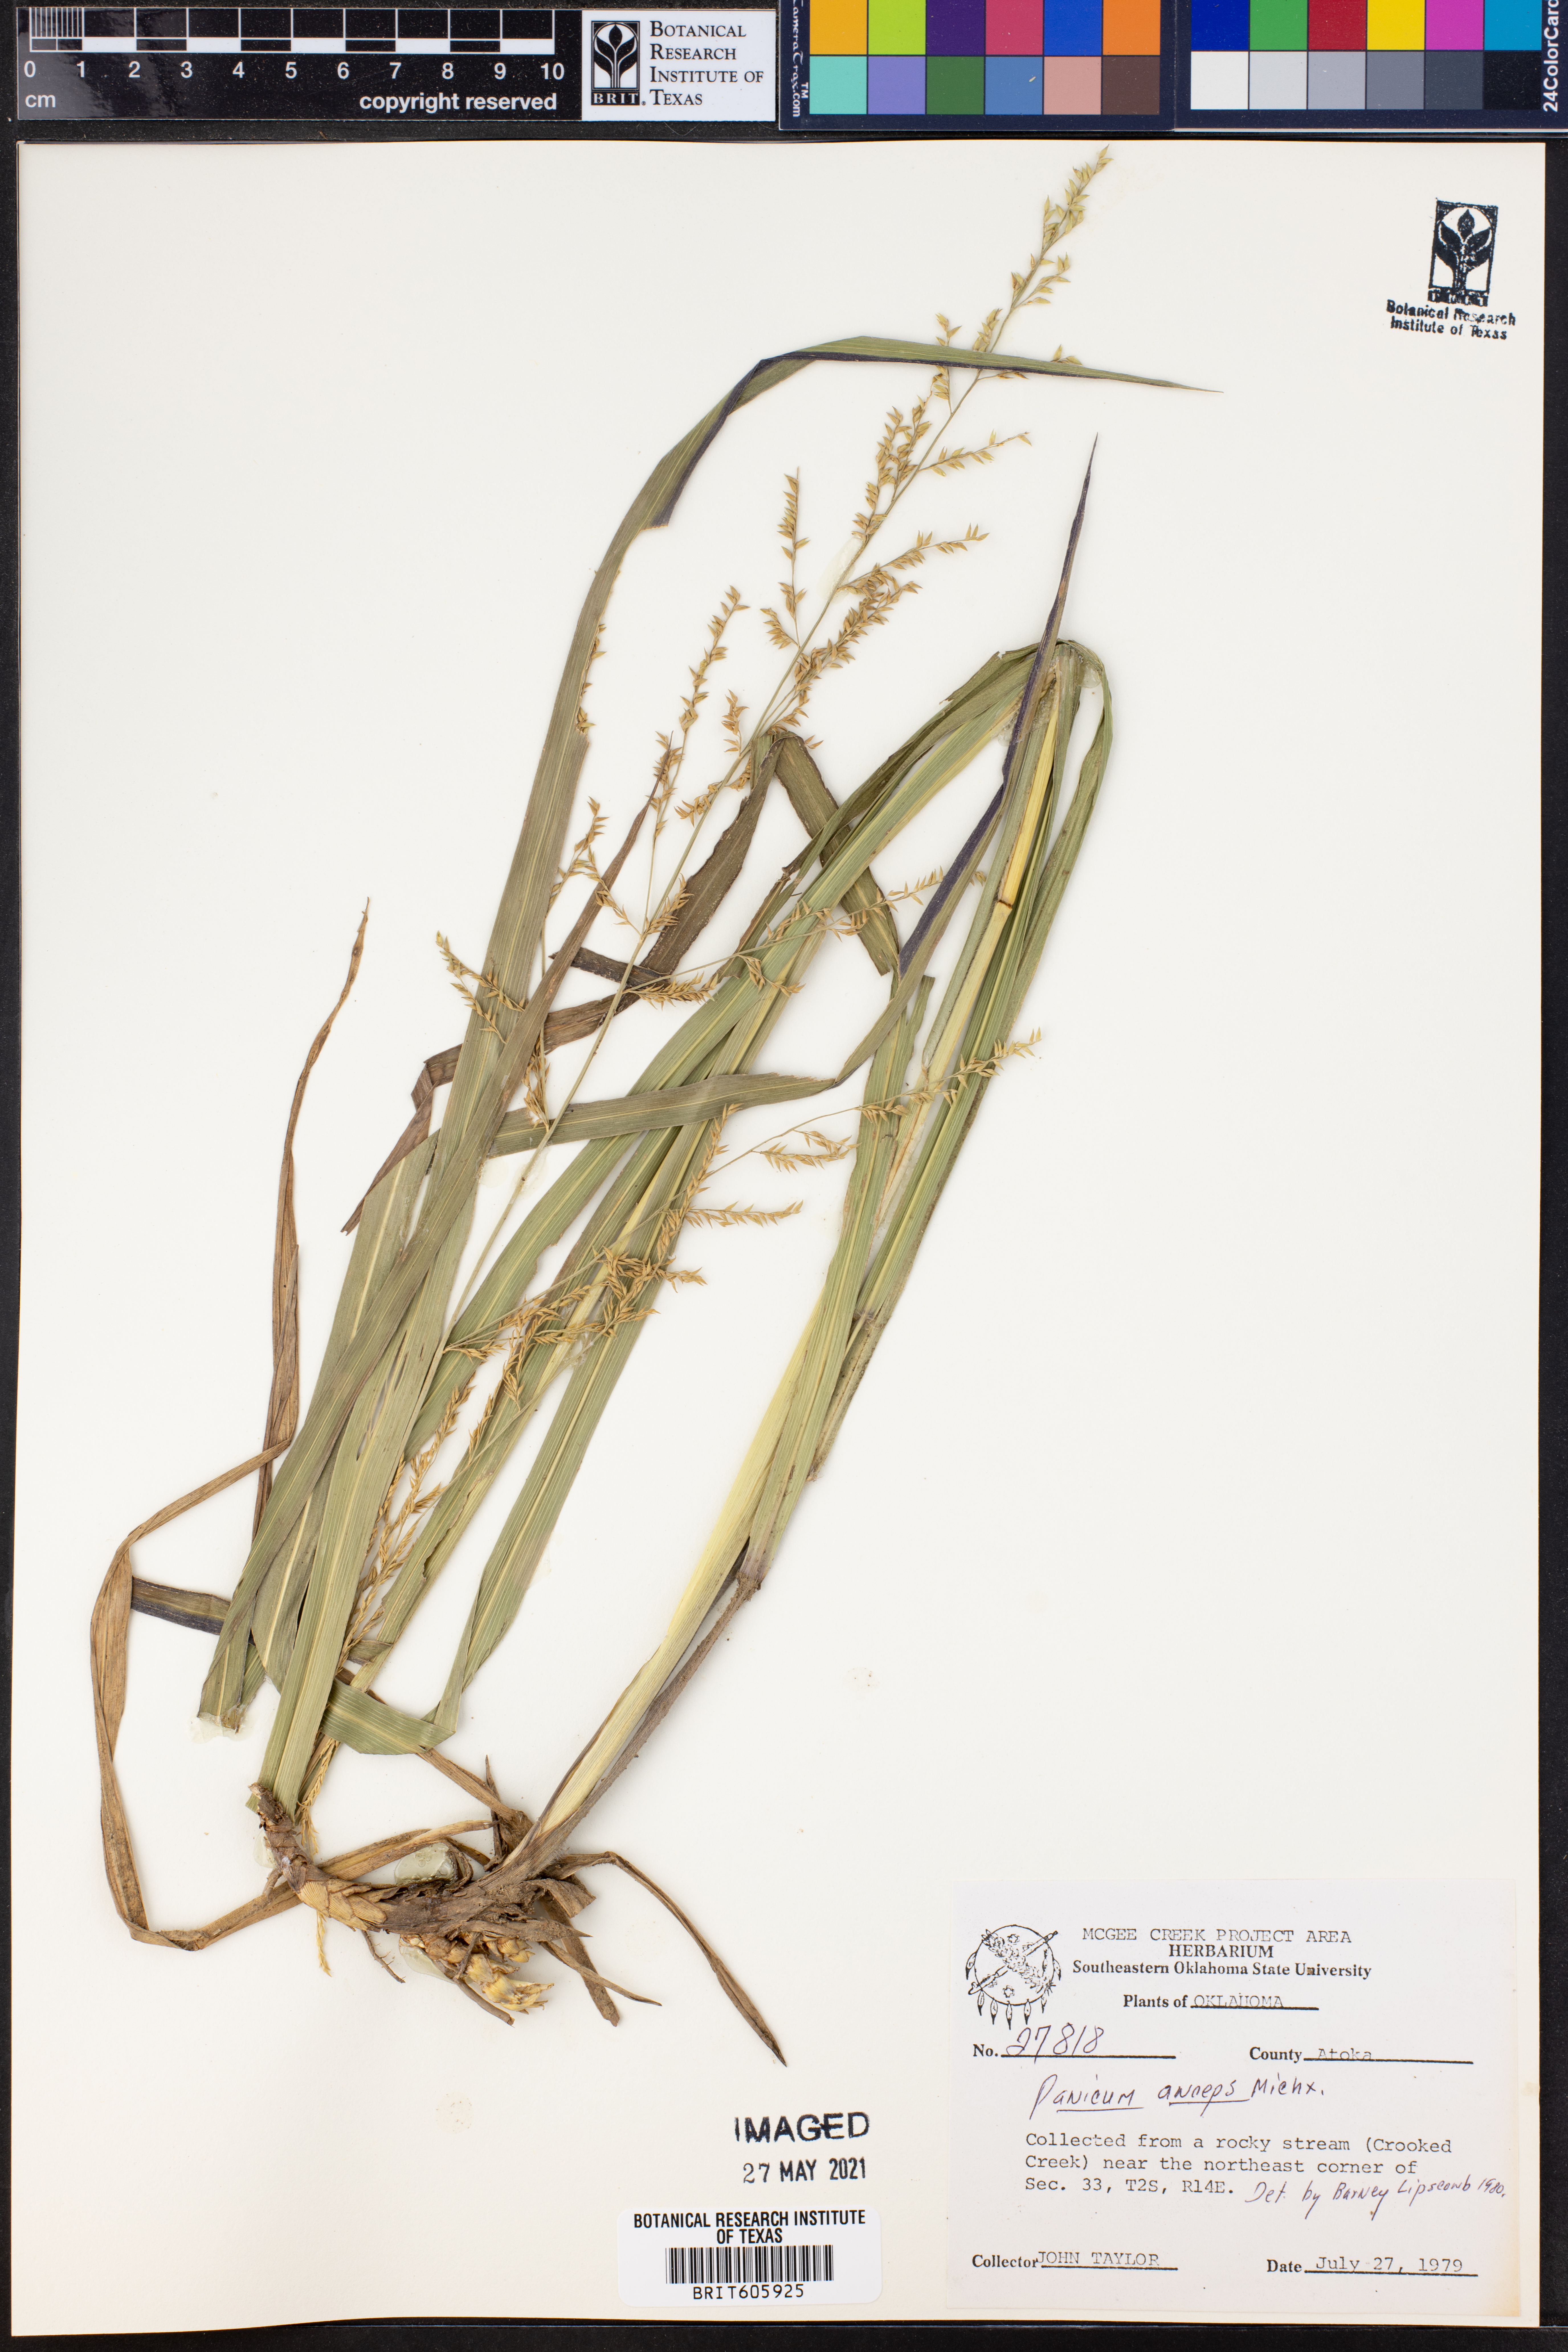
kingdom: Plantae
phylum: Tracheophyta
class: Liliopsida
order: Poales
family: Poaceae
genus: Coleataenia
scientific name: Coleataenia anceps
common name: Beaked panic grass
